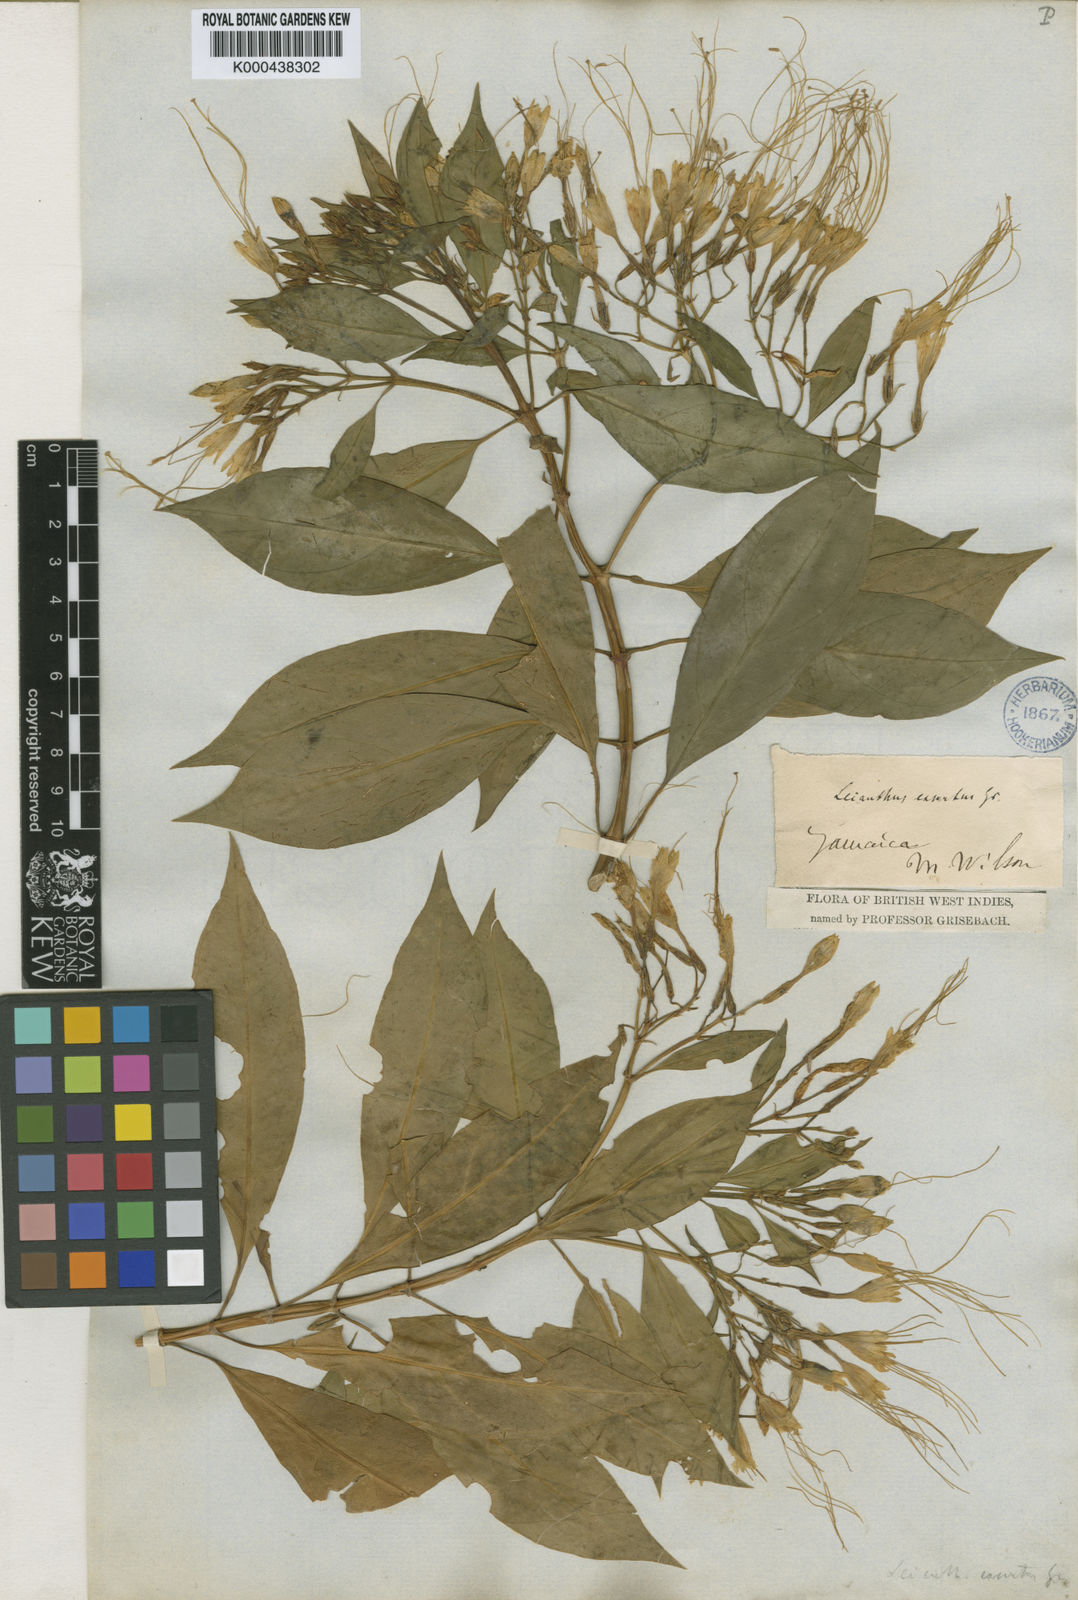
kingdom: Plantae
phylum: Tracheophyta
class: Magnoliopsida
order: Gentianales
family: Gentianaceae
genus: Lisianthus
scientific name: Lisianthus exsertus
